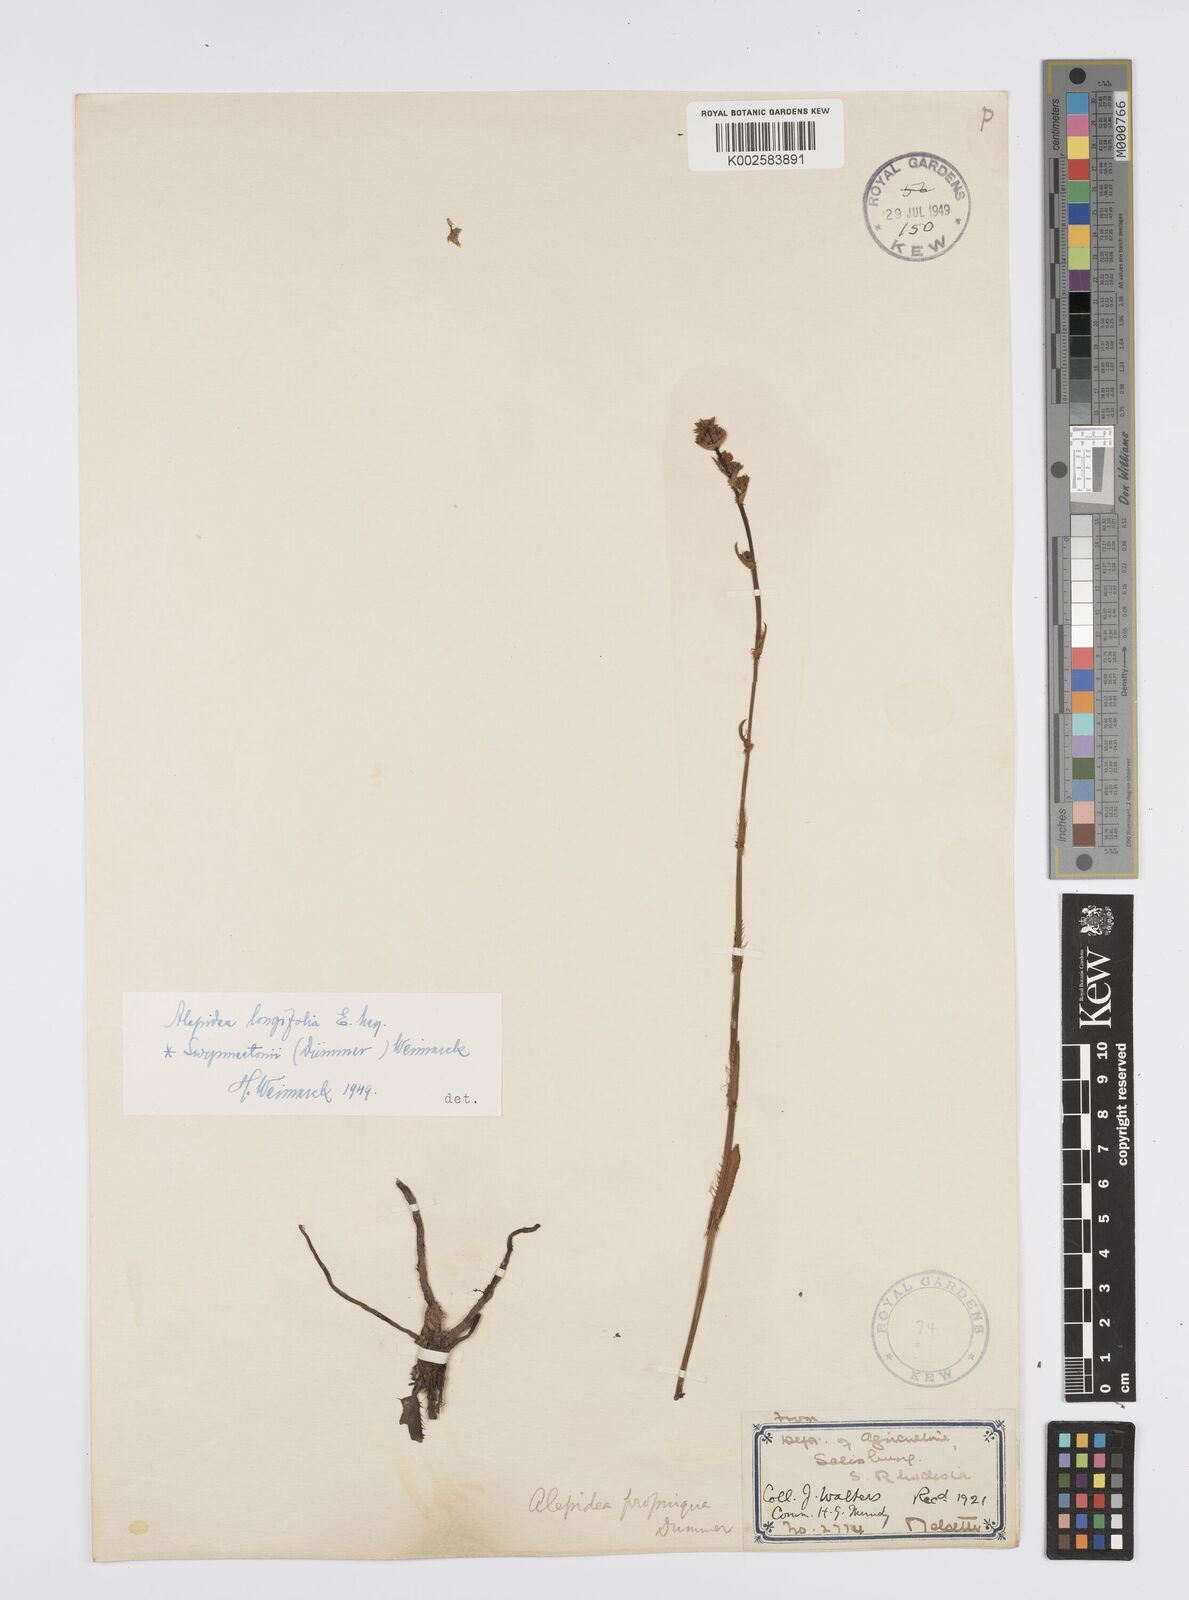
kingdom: Plantae
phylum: Tracheophyta
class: Magnoliopsida
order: Apiales
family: Apiaceae
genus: Alepidea
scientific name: Alepidea
